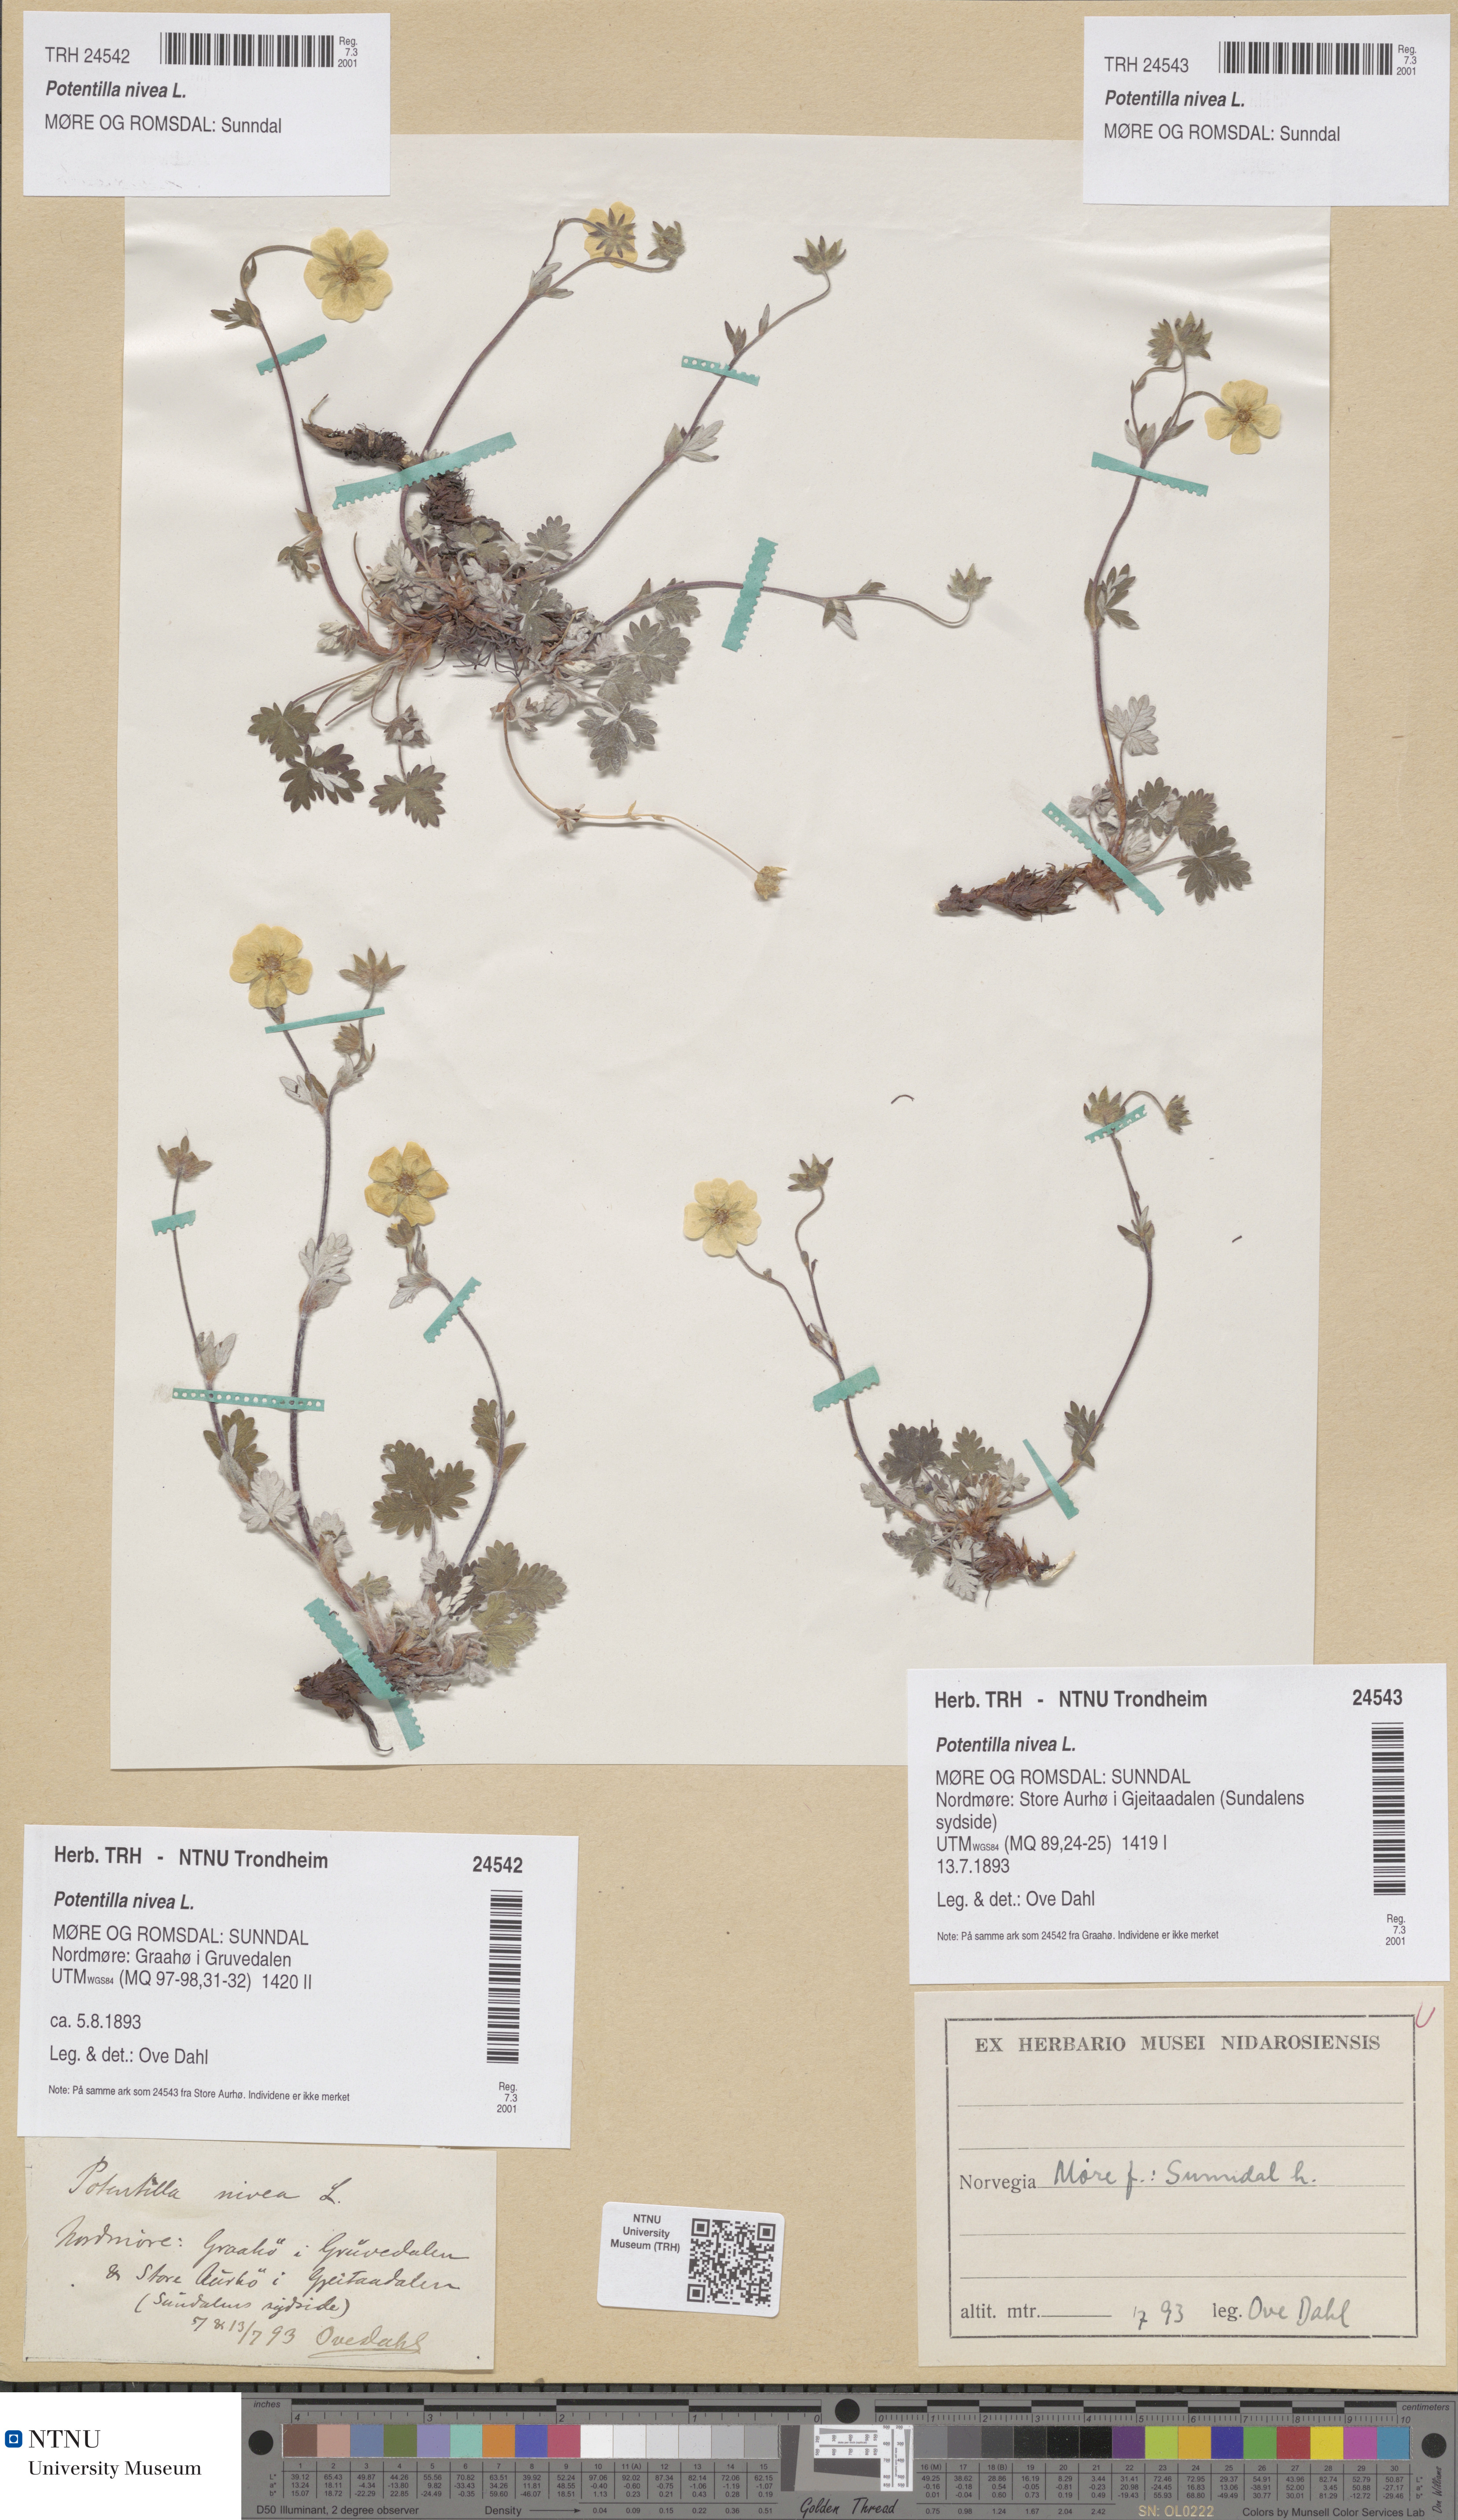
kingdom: Plantae
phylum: Tracheophyta
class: Magnoliopsida
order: Rosales
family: Rosaceae
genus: Potentilla
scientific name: Potentilla nivea
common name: Snow cinquefoil
